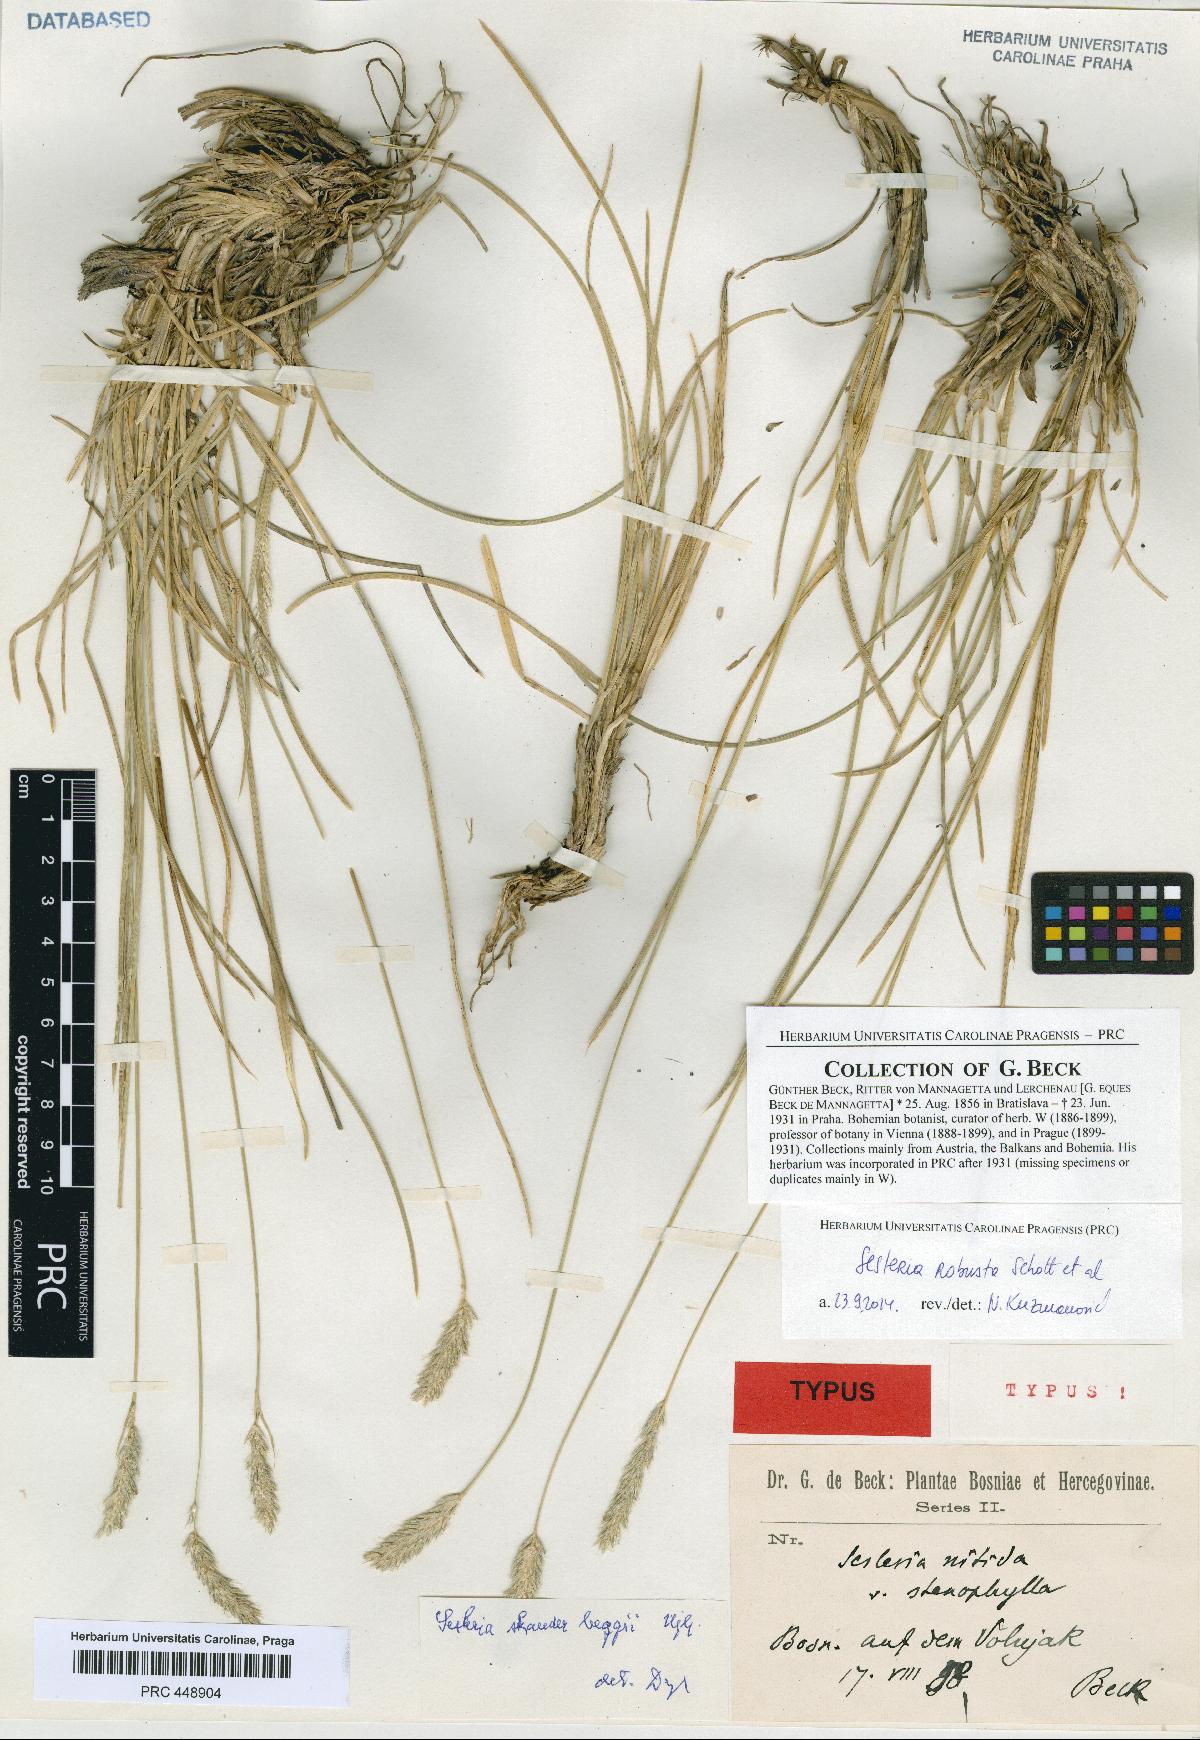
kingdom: Plantae
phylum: Tracheophyta
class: Liliopsida
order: Poales
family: Poaceae
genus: Sesleria
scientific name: Sesleria robusta
